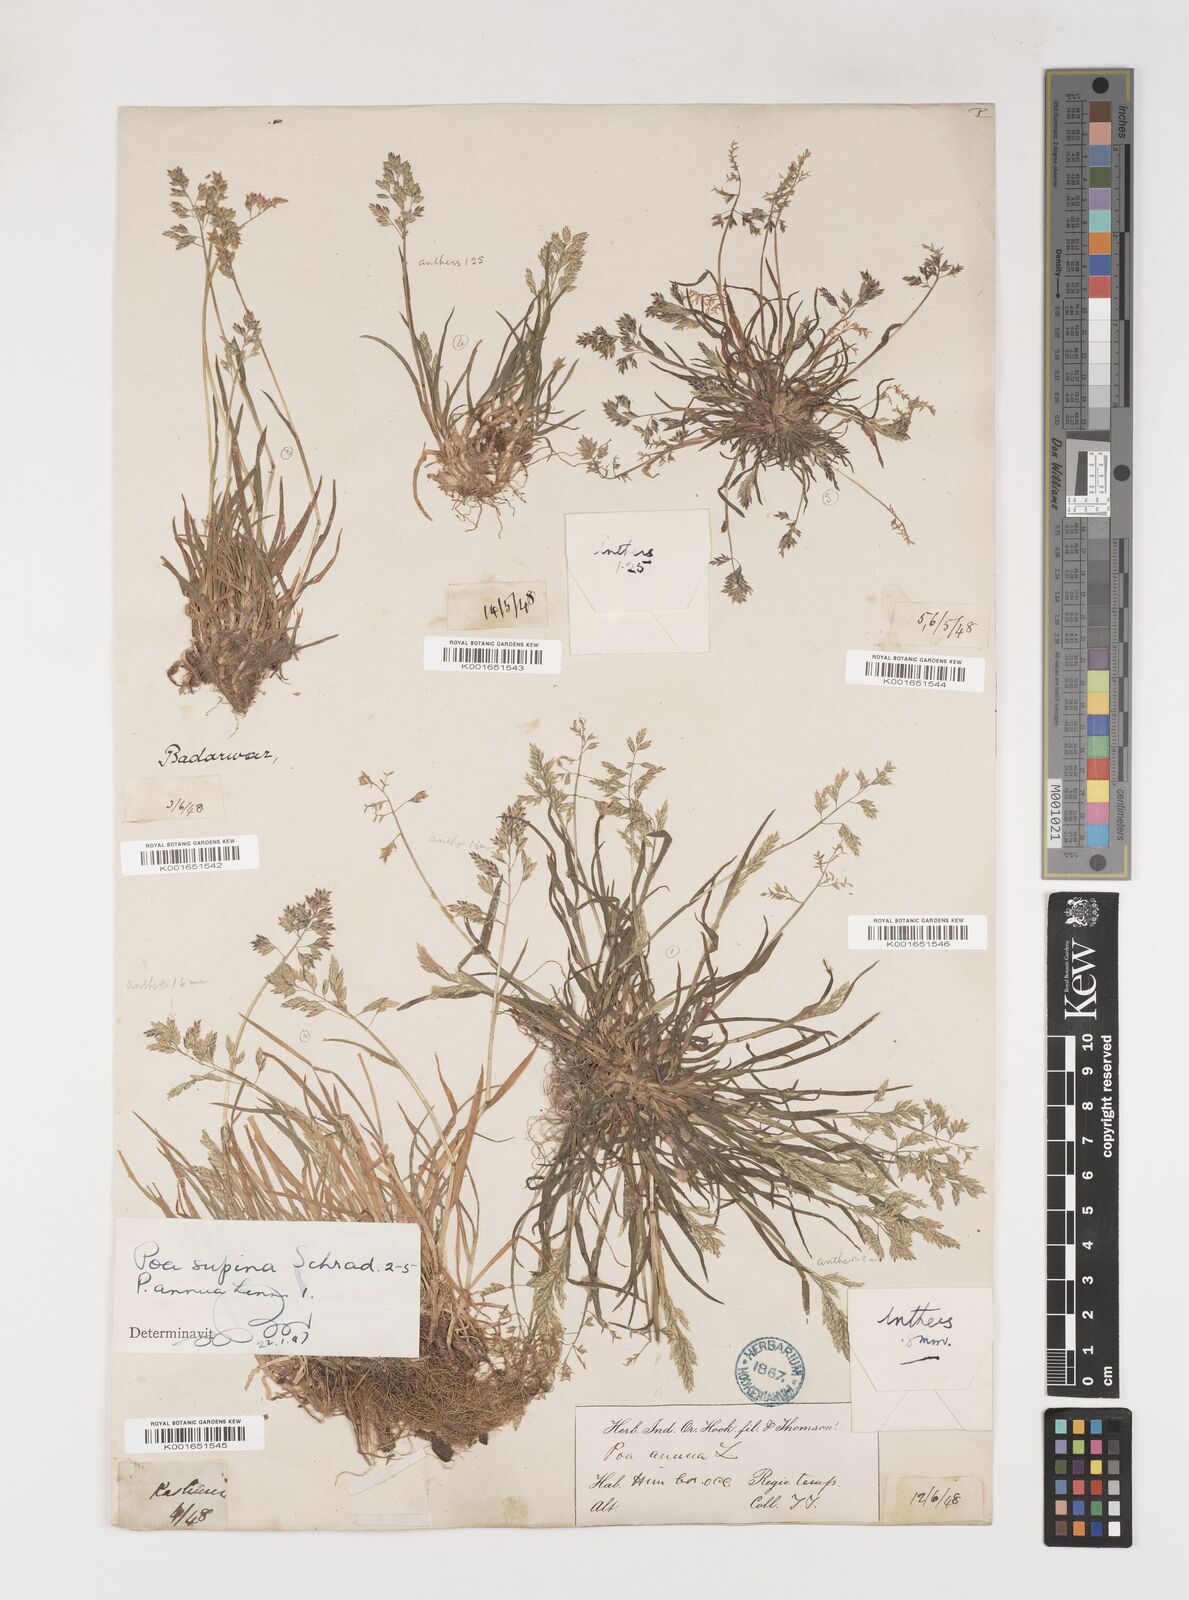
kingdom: Plantae
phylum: Tracheophyta
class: Liliopsida
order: Poales
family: Poaceae
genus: Poa
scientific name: Poa supina
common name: Supina bluegrass
